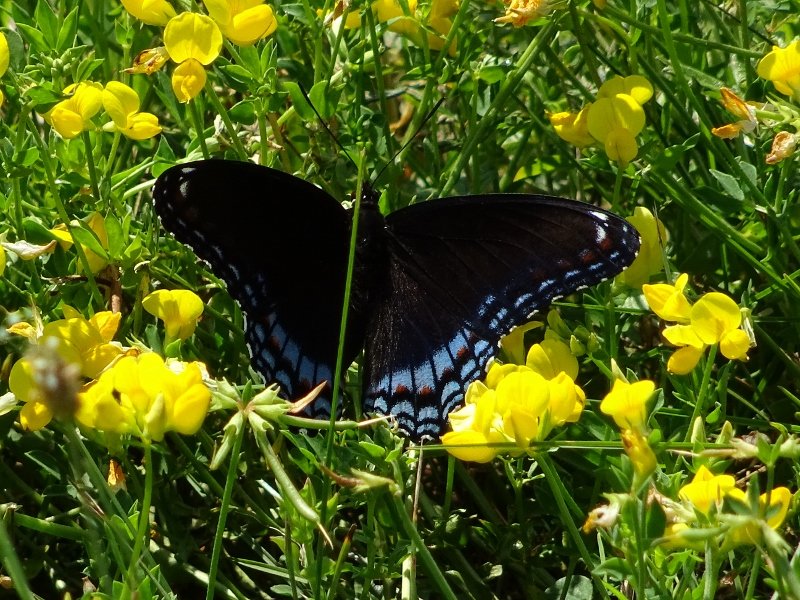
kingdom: Animalia
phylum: Arthropoda
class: Insecta
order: Lepidoptera
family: Nymphalidae
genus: Limenitis
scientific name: Limenitis astyanax
